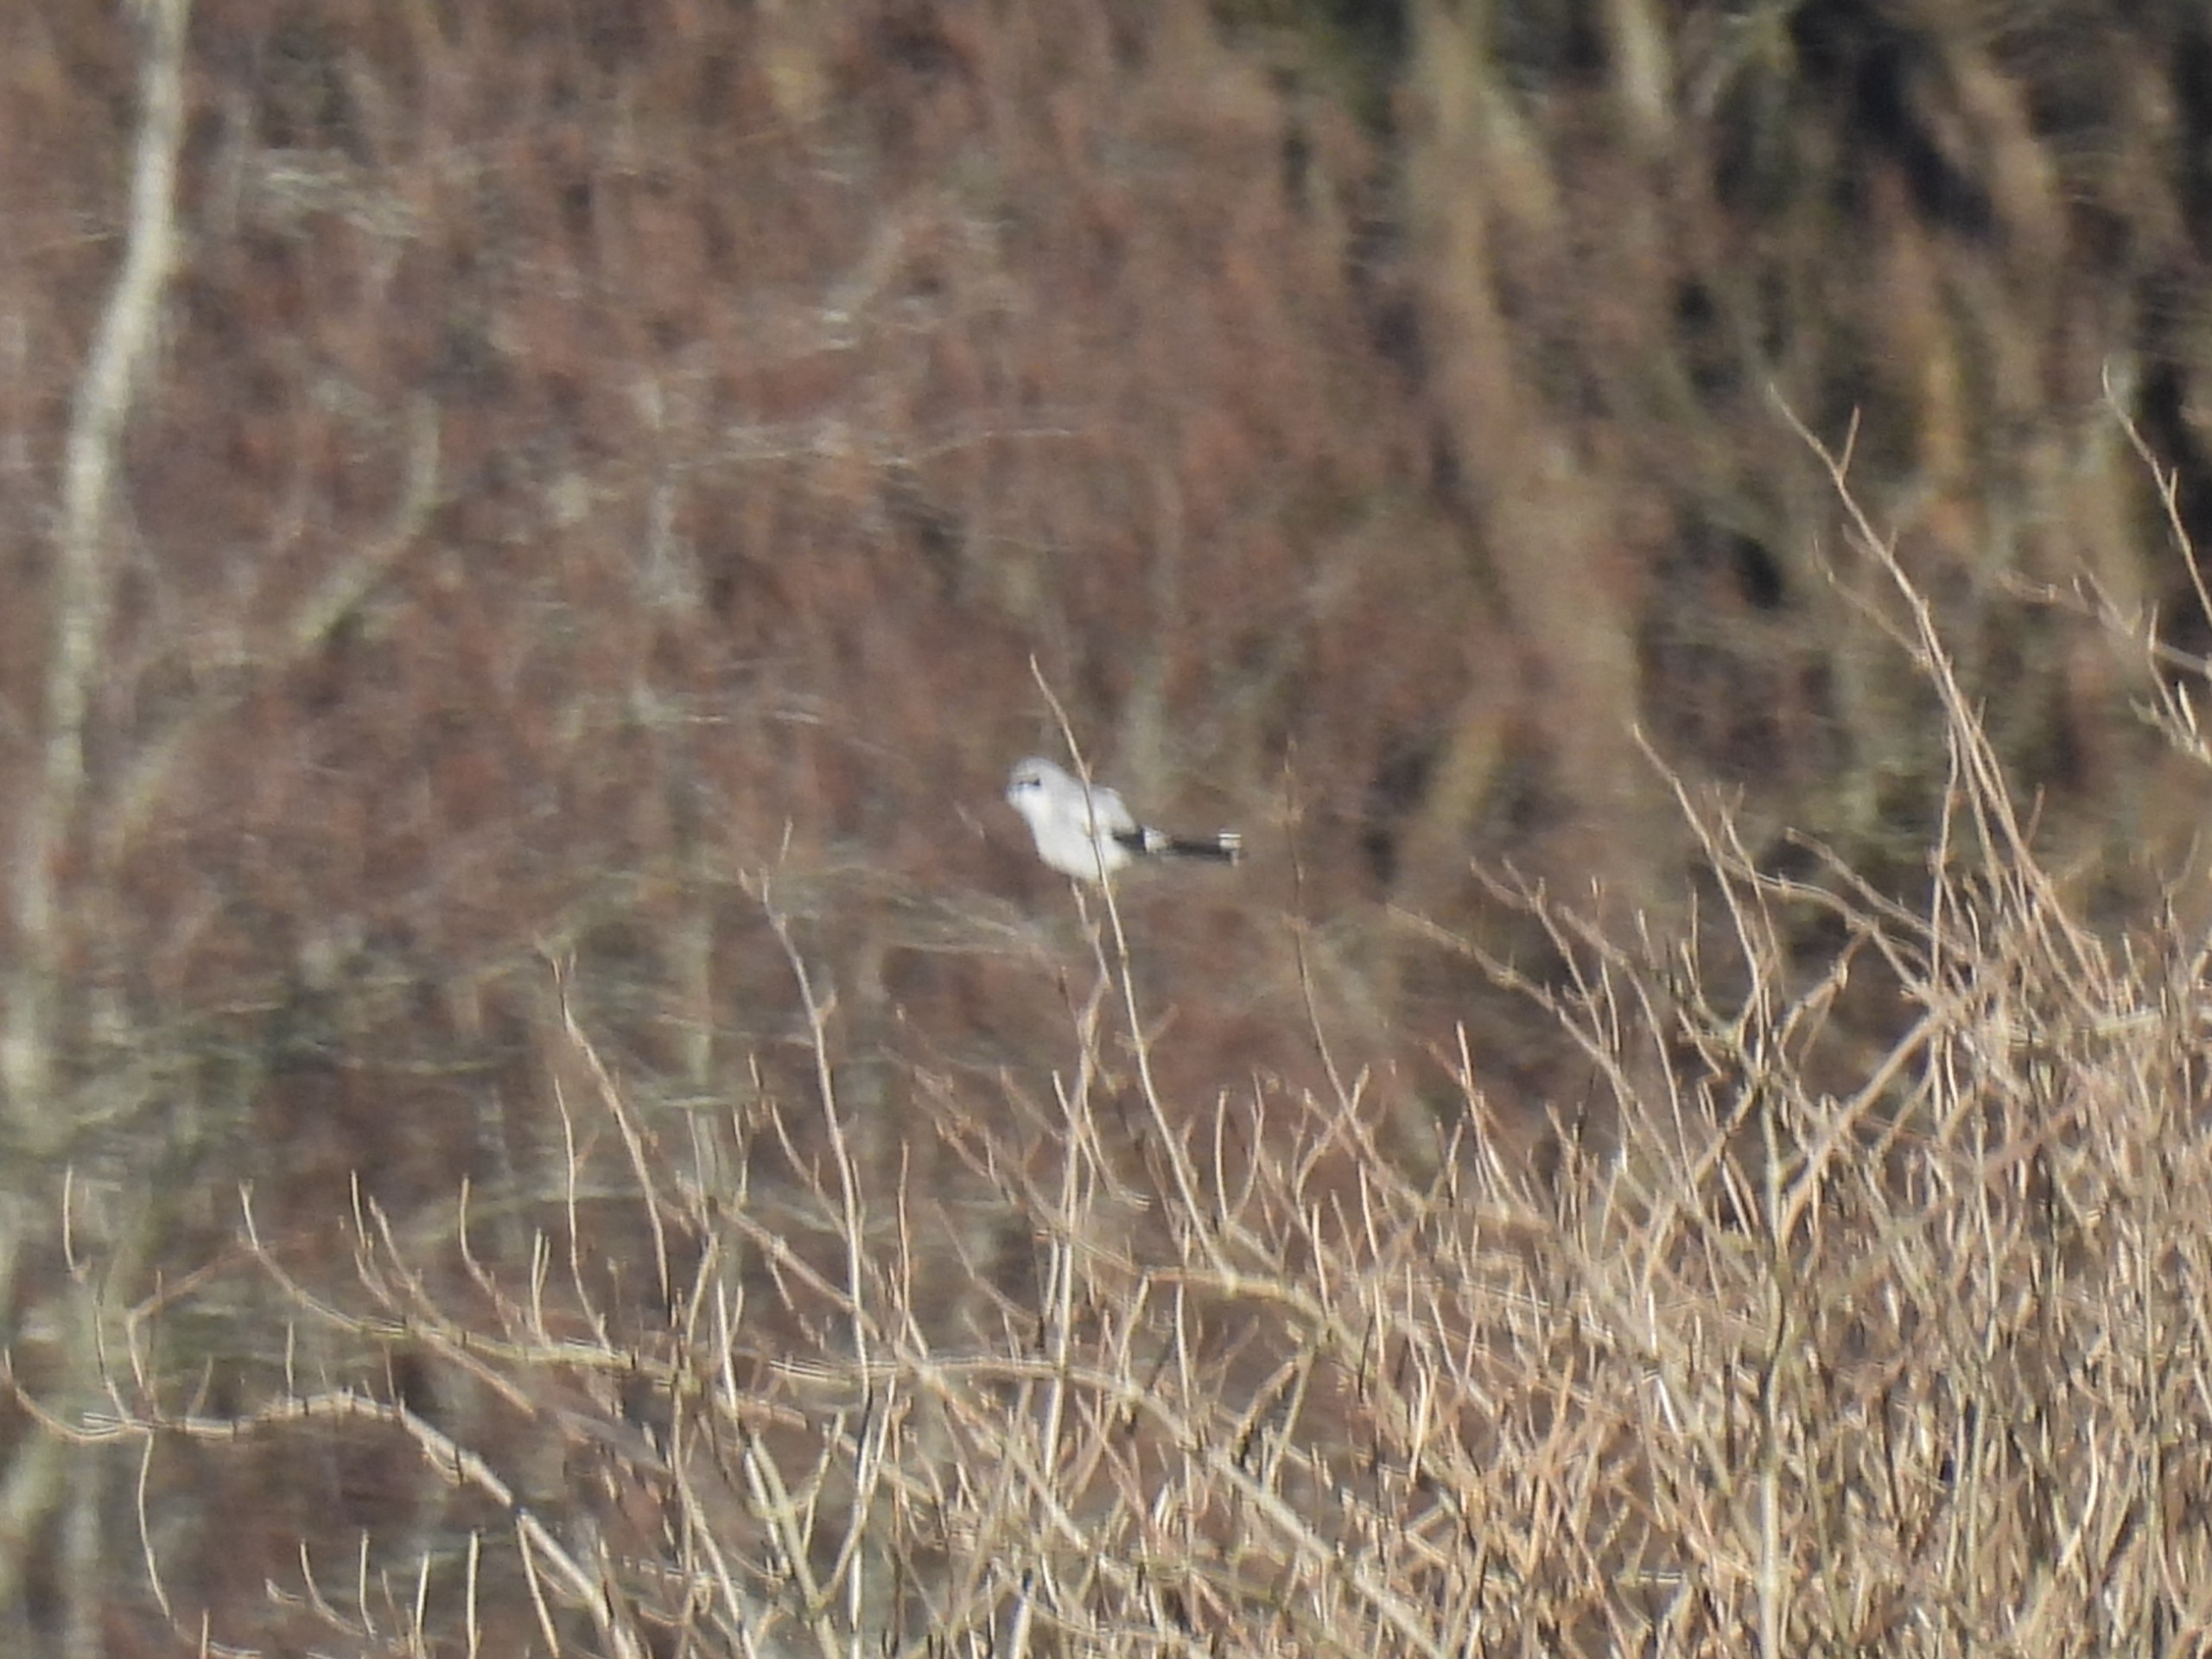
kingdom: Animalia
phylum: Chordata
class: Aves
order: Passeriformes
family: Laniidae
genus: Lanius
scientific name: Lanius excubitor
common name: Stor tornskade
